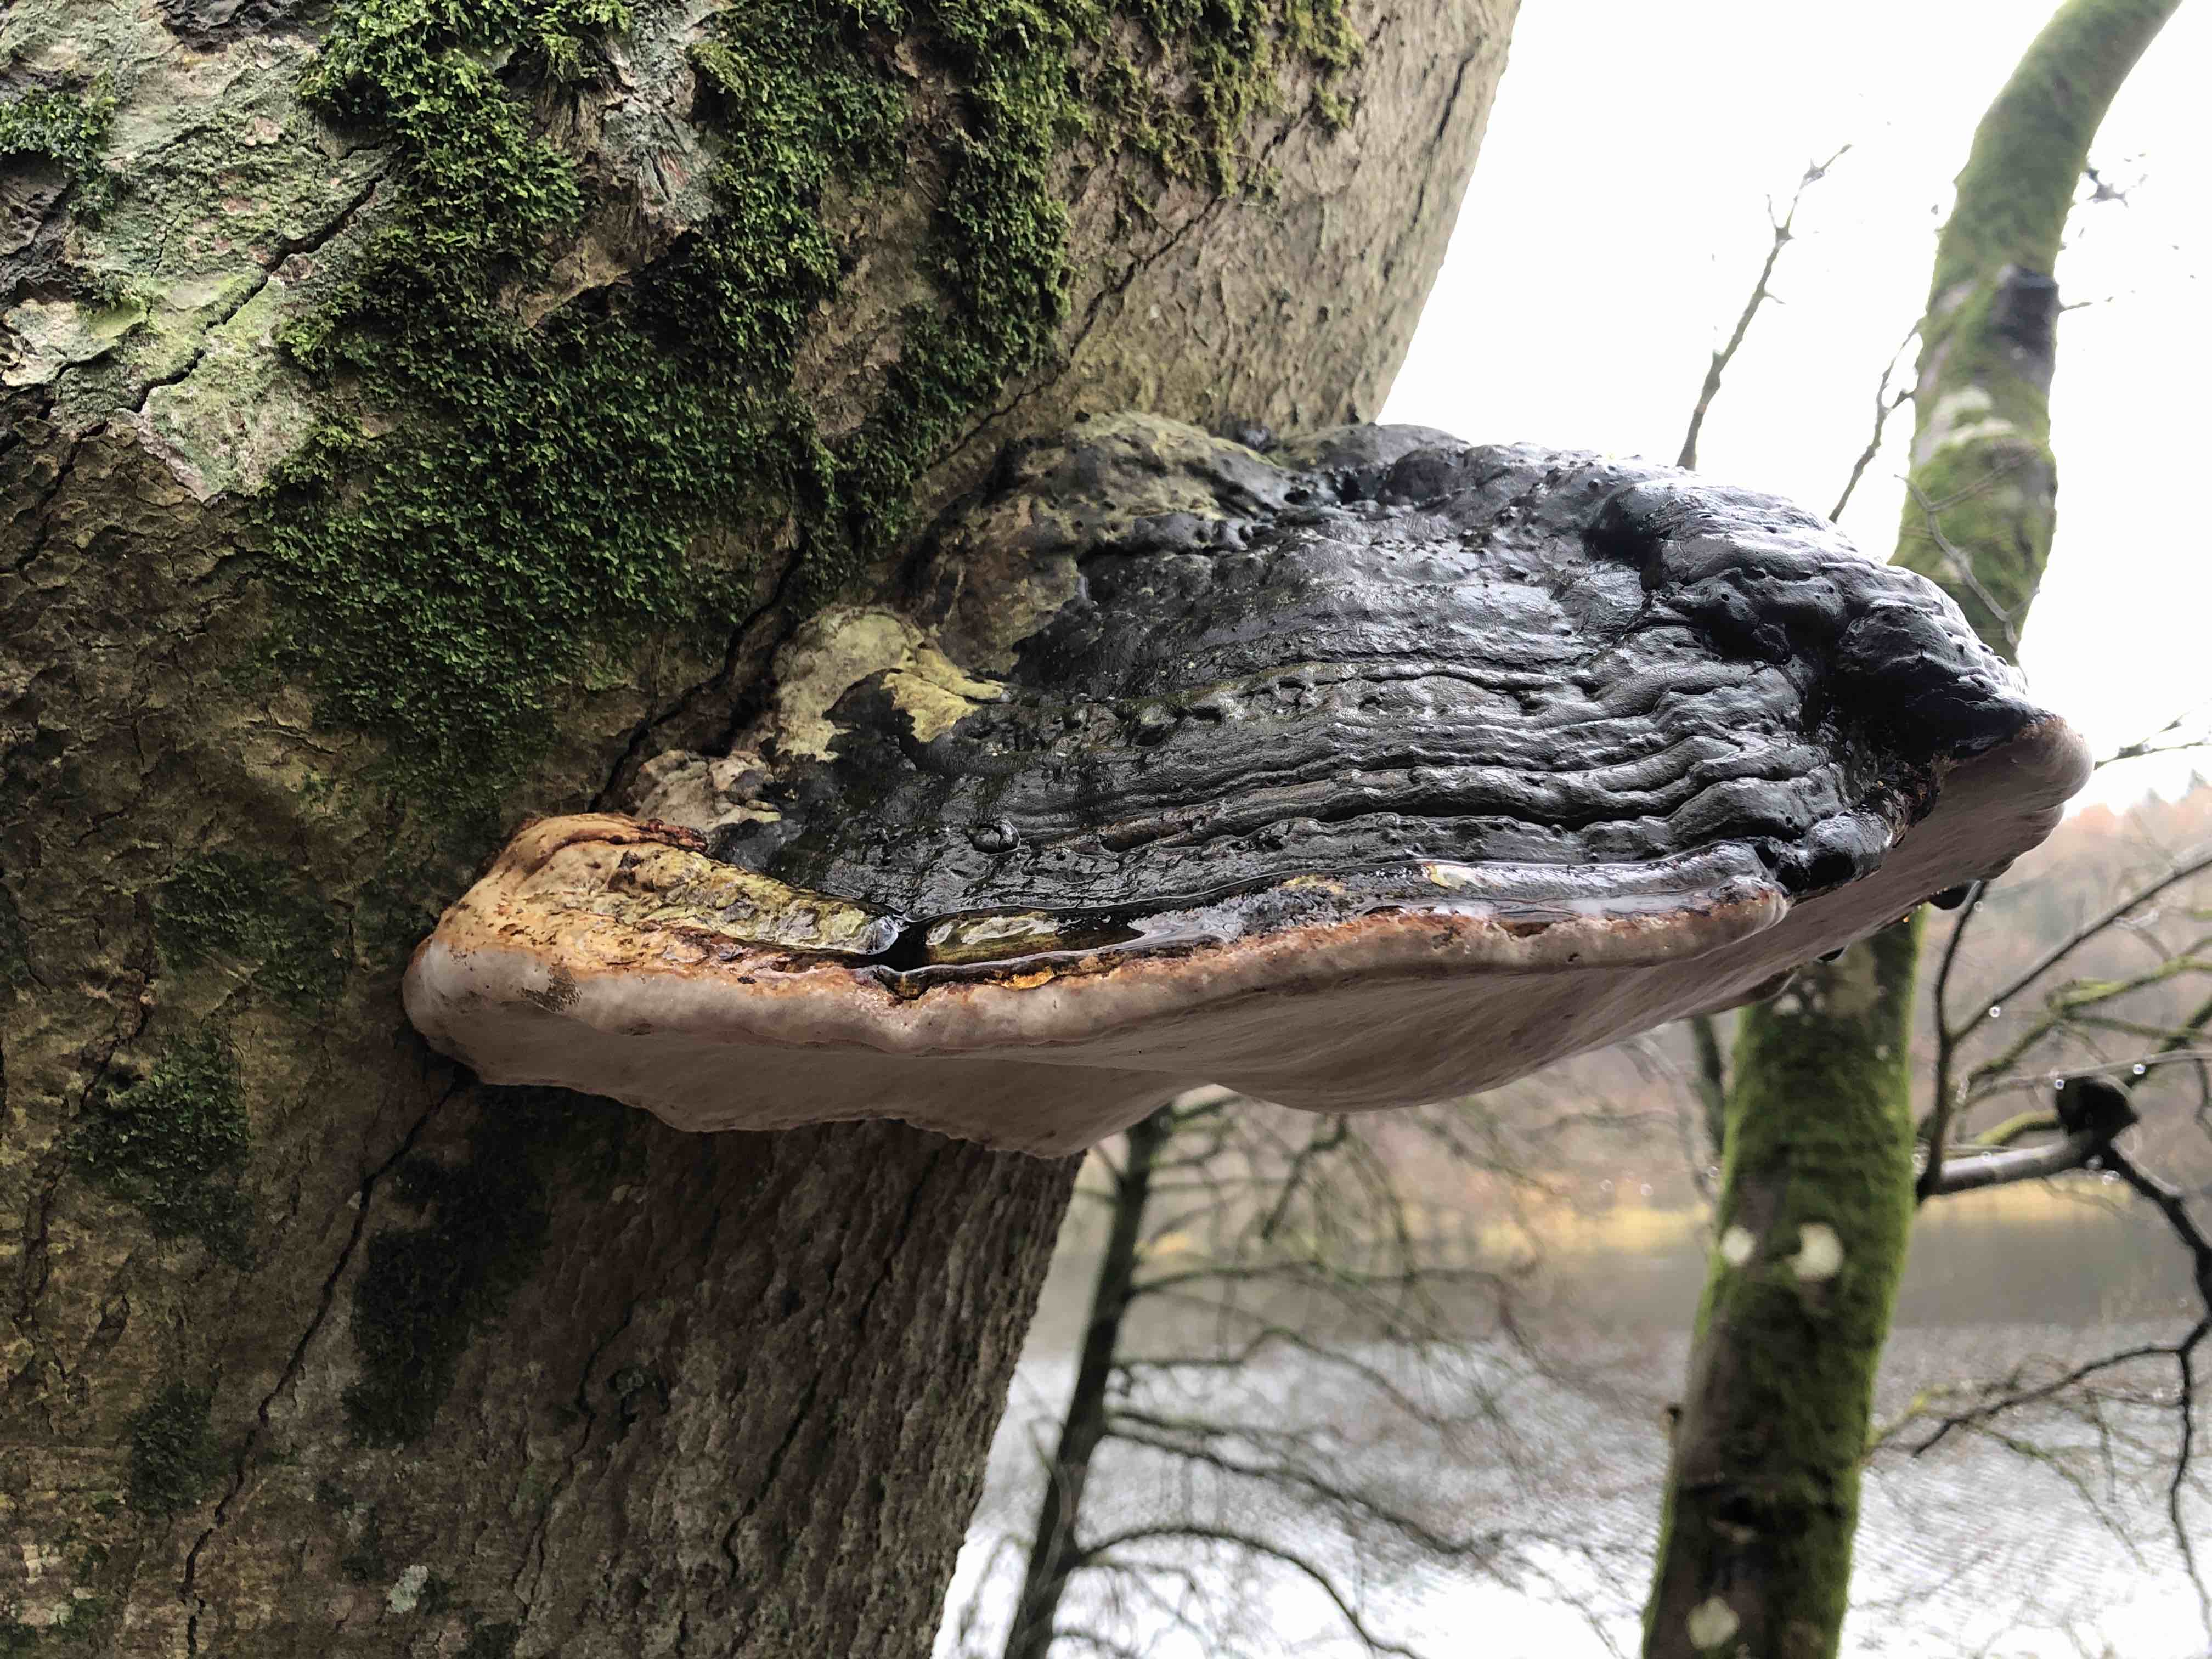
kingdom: Fungi
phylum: Basidiomycota
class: Agaricomycetes
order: Polyporales
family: Polyporaceae
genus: Fomes
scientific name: Fomes fomentarius
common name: tøndersvamp
